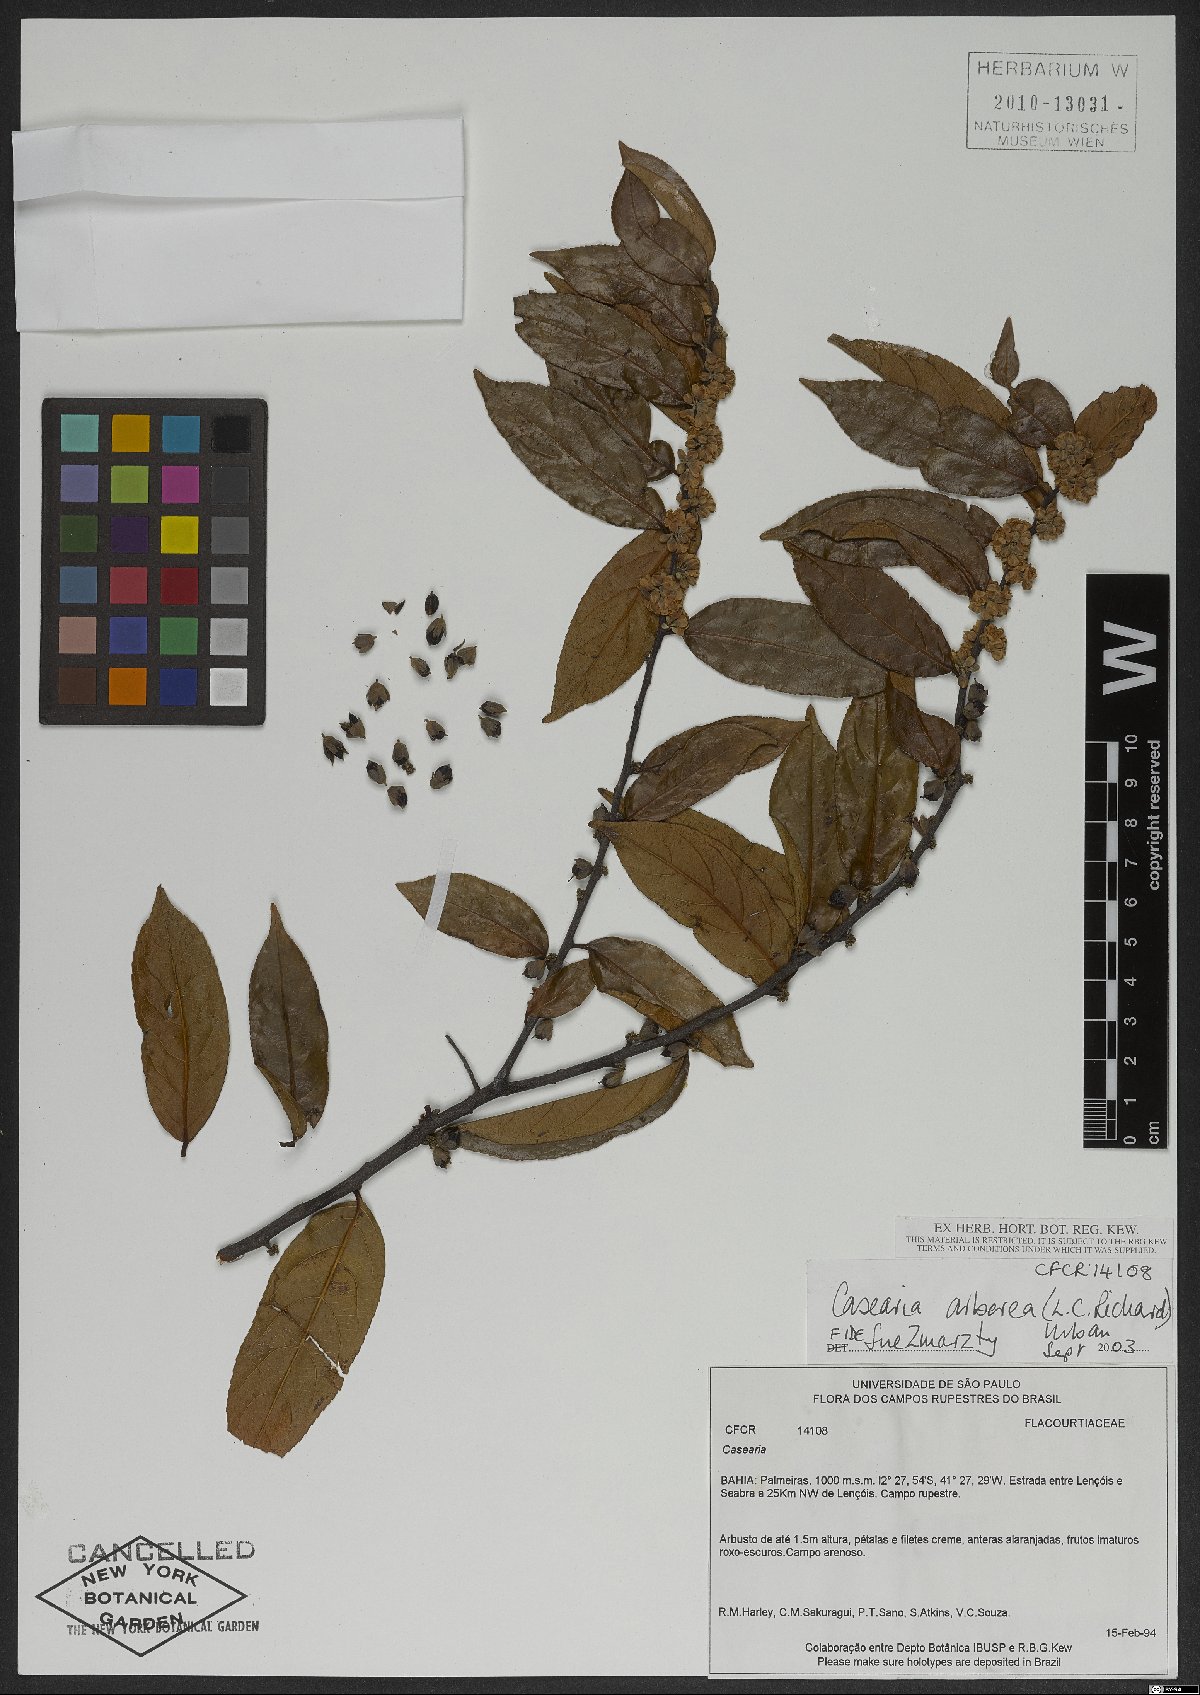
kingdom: Plantae
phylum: Tracheophyta
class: Magnoliopsida
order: Malpighiales
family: Salicaceae
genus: Casearia
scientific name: Casearia arborea
